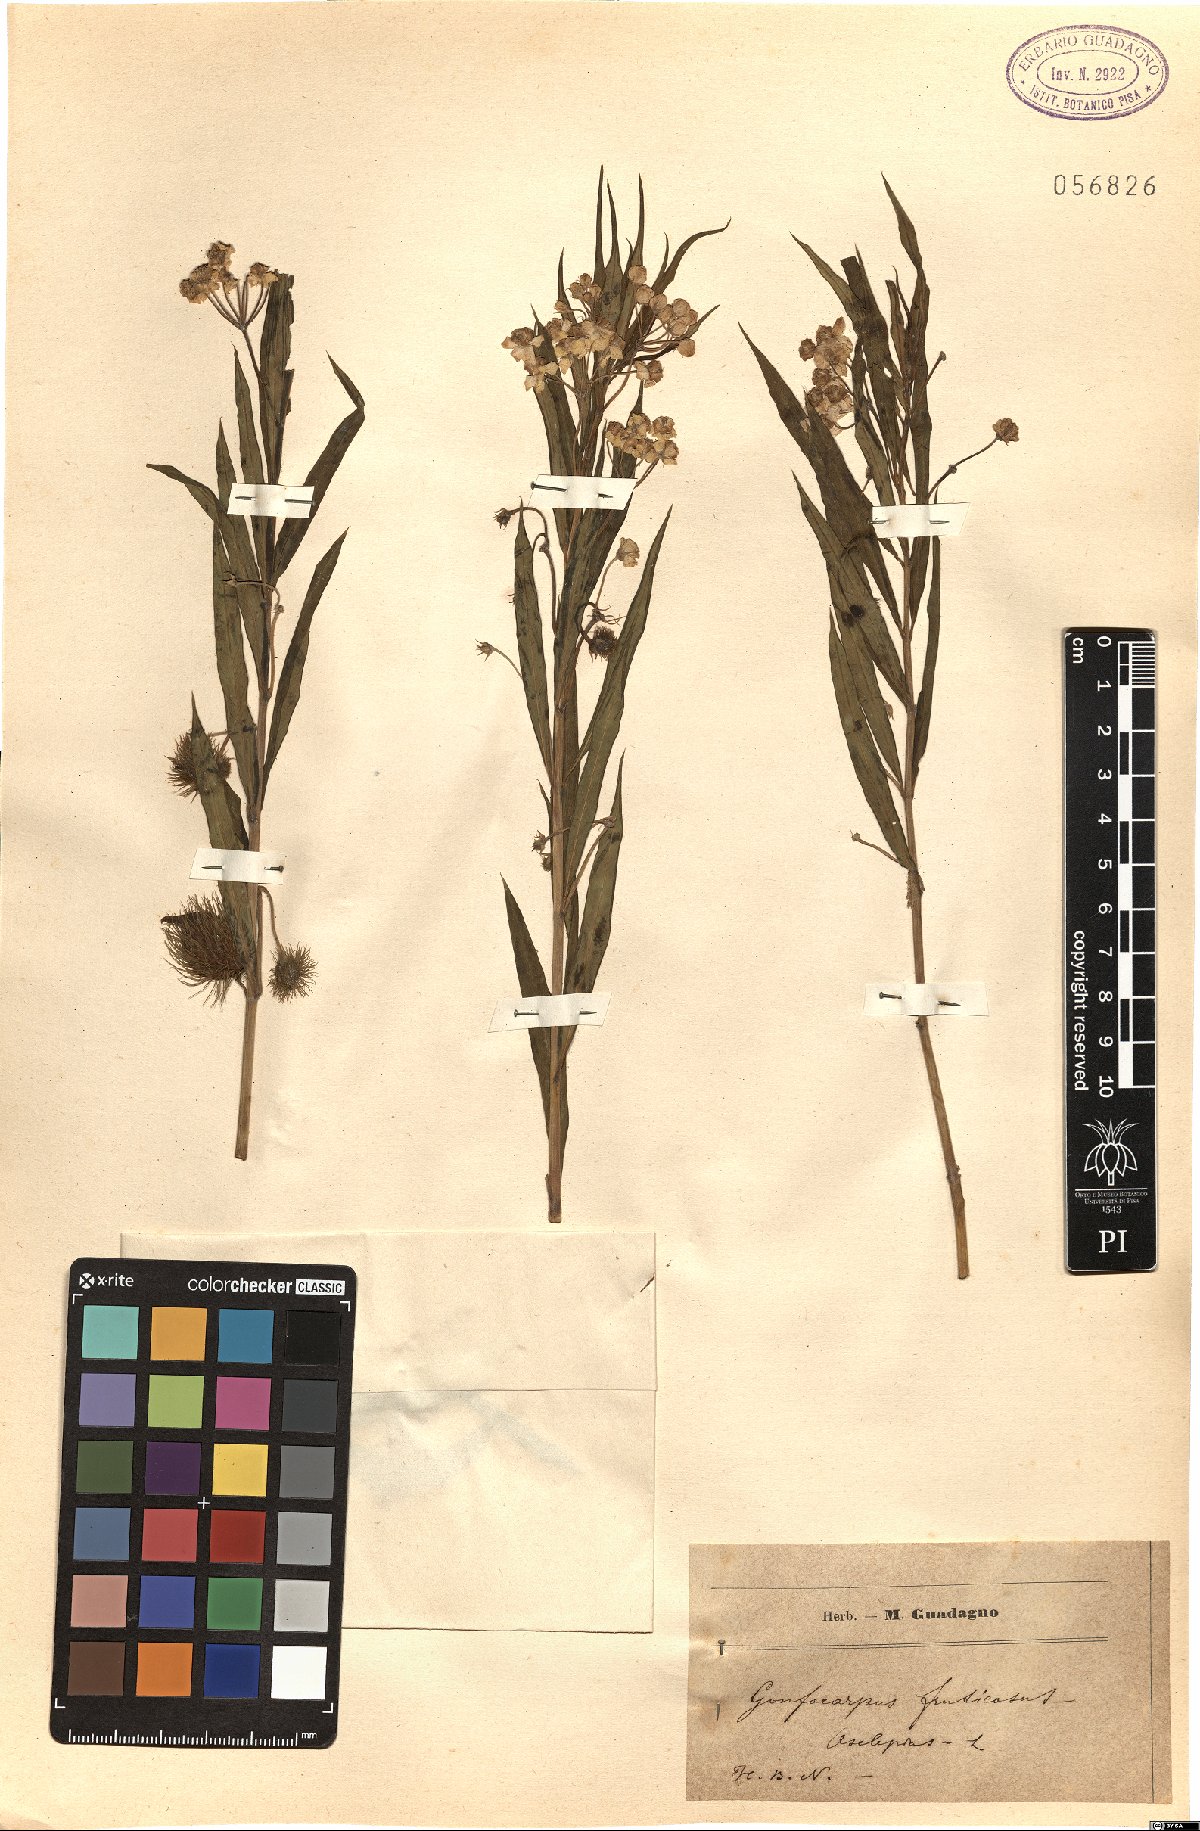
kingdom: Plantae
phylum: Tracheophyta
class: Magnoliopsida
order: Gentianales
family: Apocynaceae
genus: Gomphocarpus
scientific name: Gomphocarpus fruticosus
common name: Milkweed
